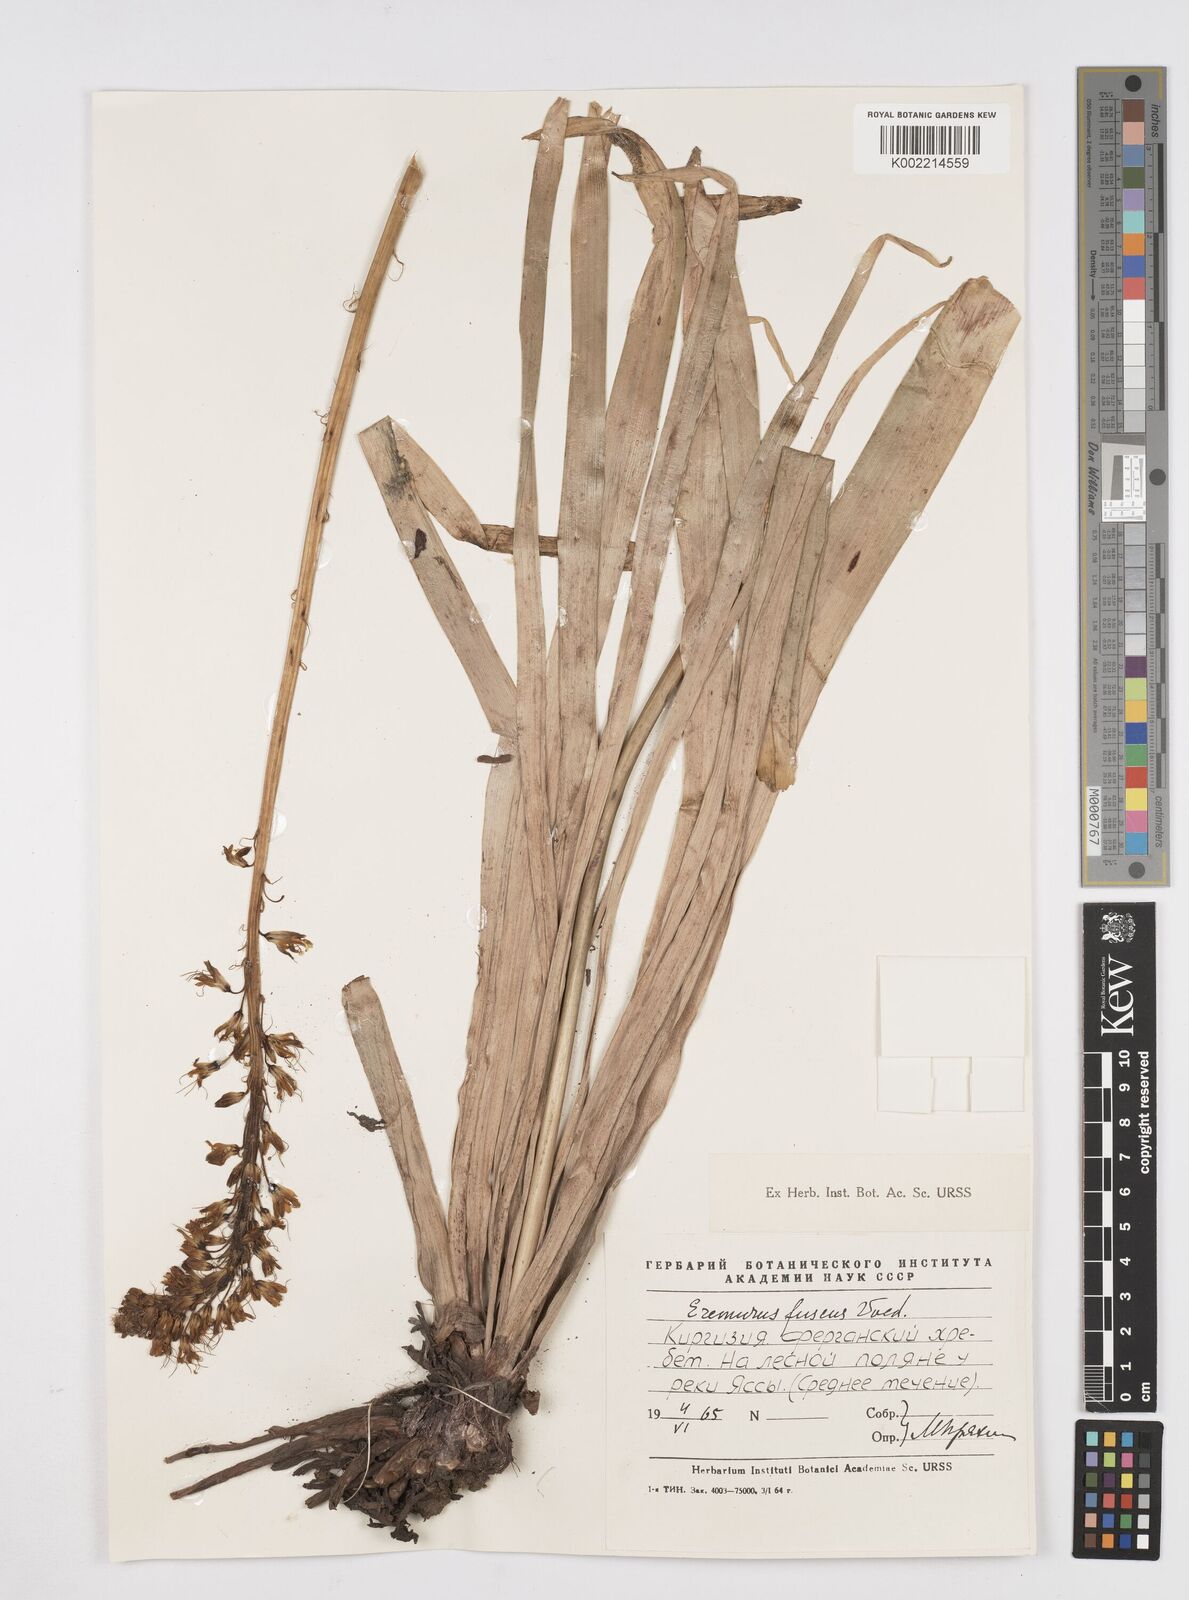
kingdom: Plantae
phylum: Tracheophyta
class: Liliopsida
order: Asparagales
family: Asphodelaceae
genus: Eremurus
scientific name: Eremurus fuscus
